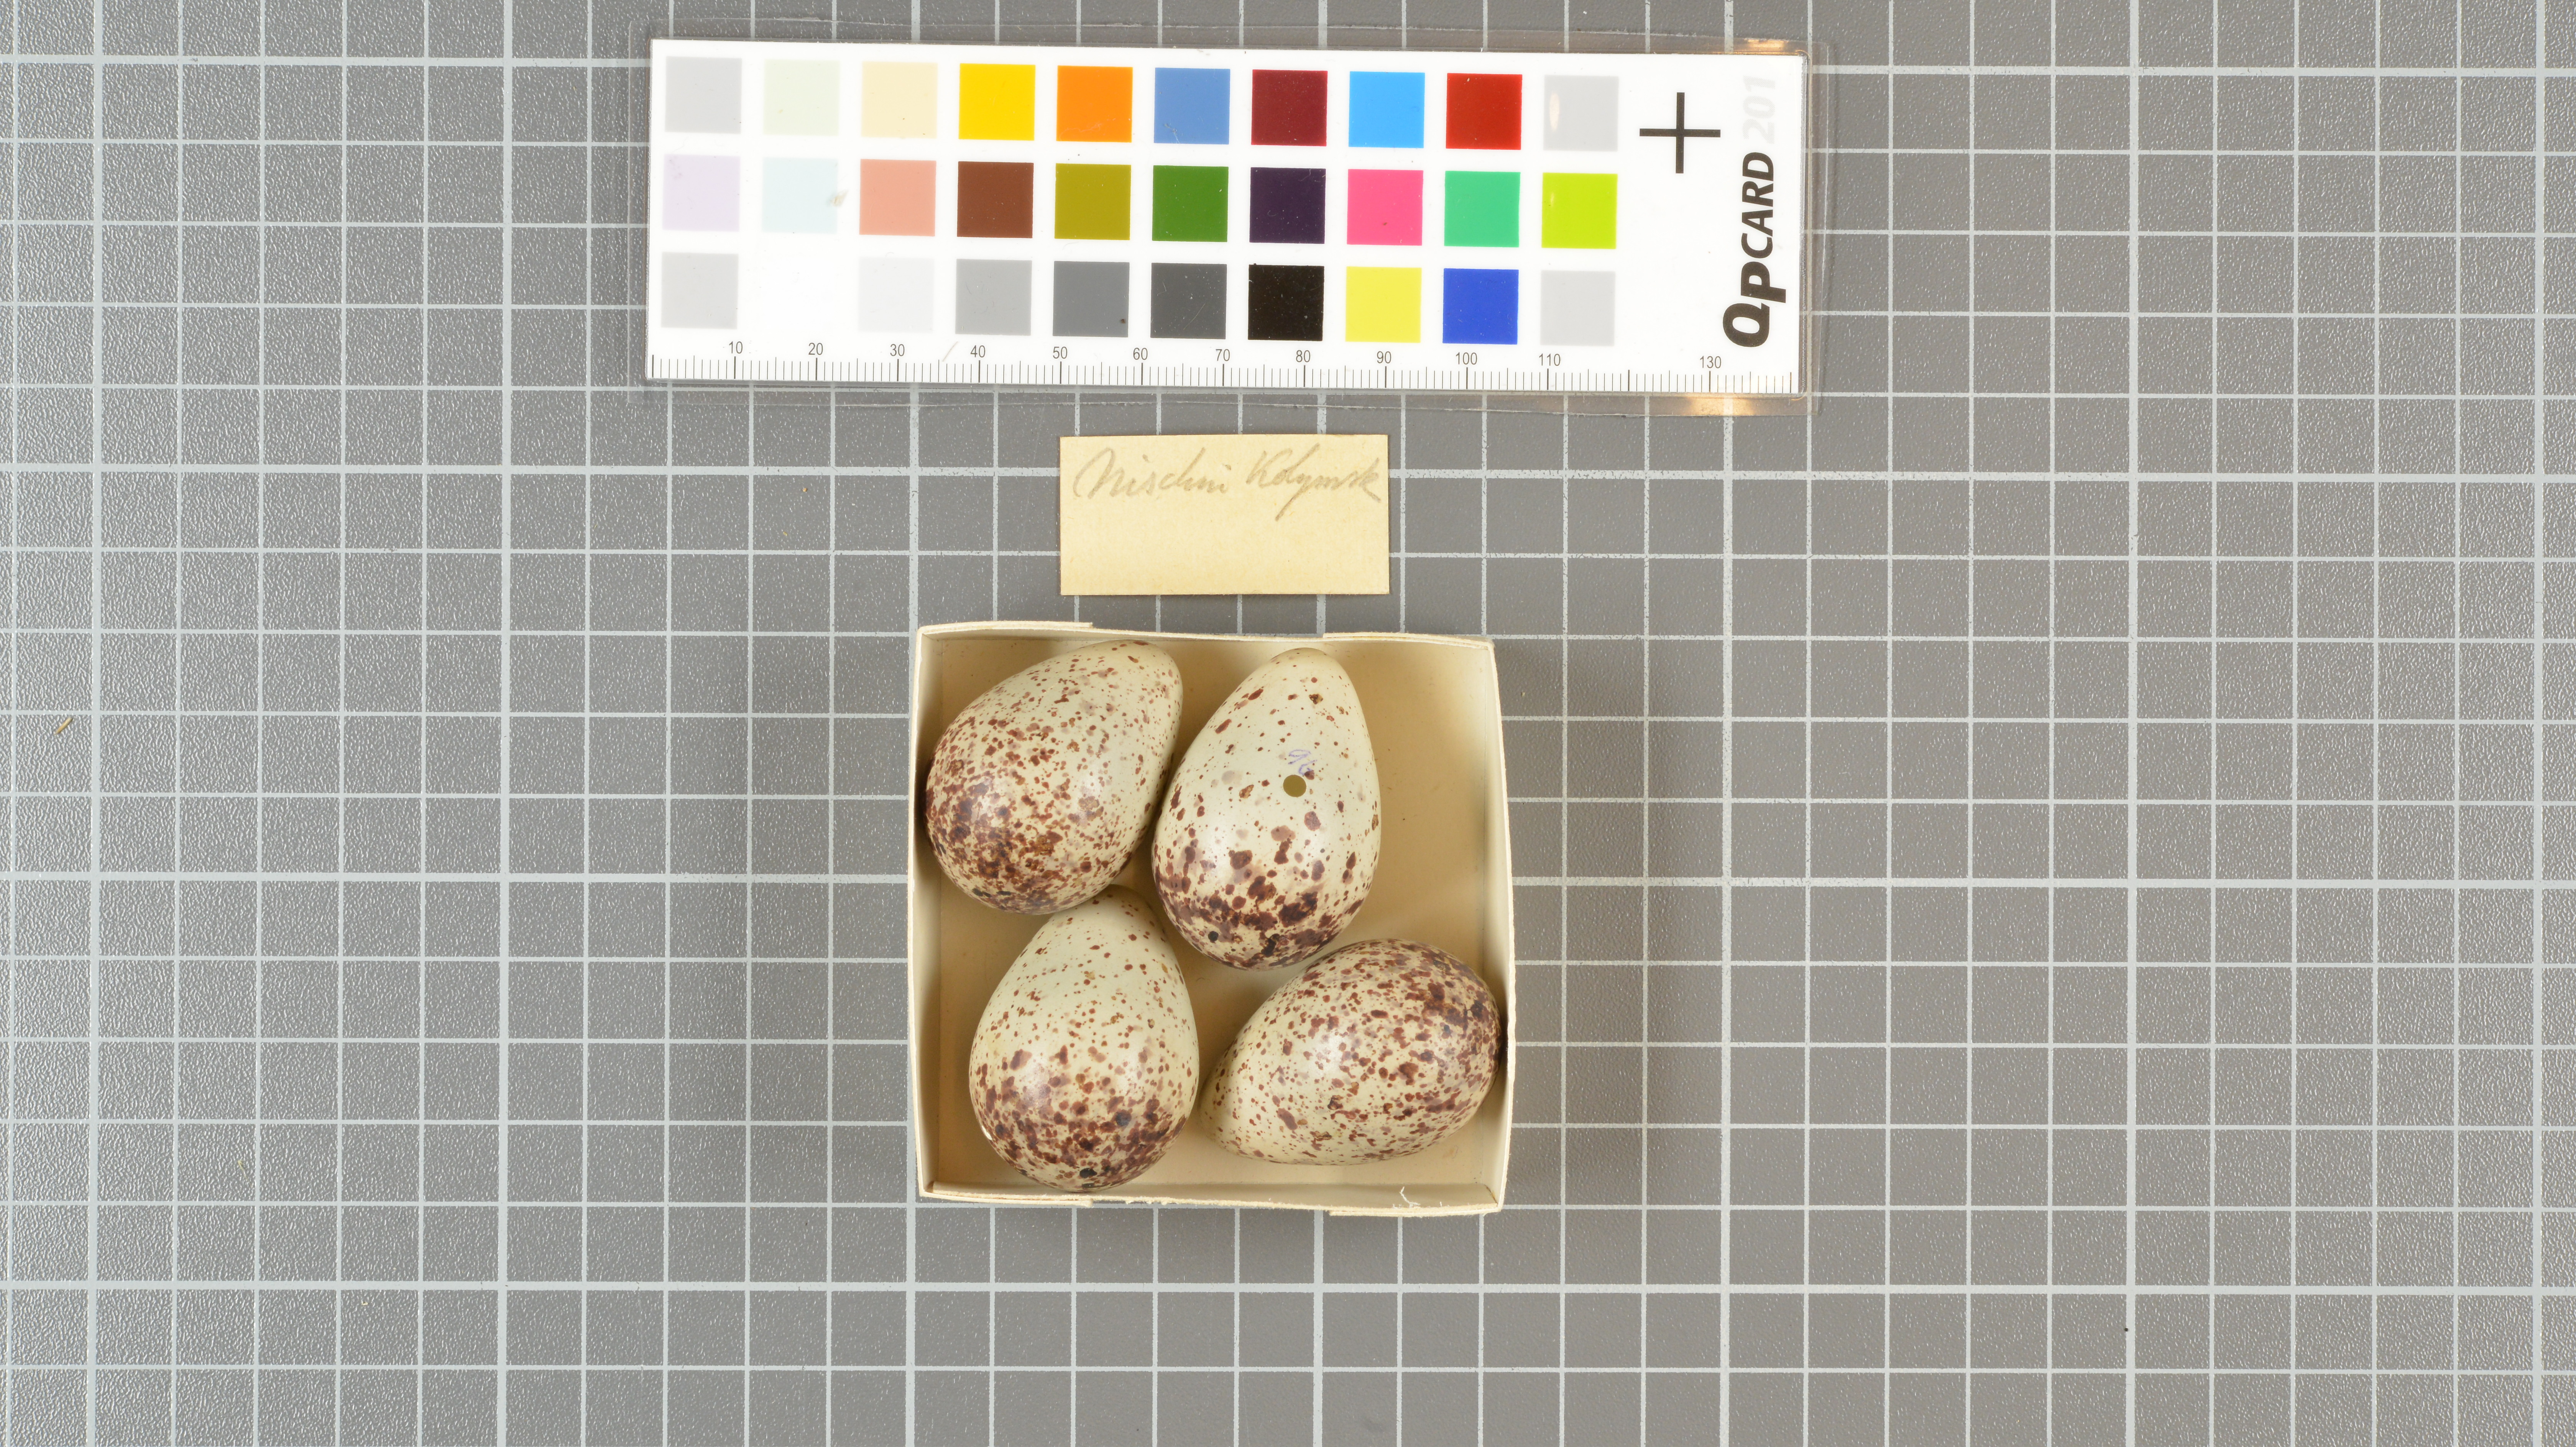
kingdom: Animalia
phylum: Chordata
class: Aves
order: Charadriiformes
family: Scolopacidae
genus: Tringa
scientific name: Tringa glareola
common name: Wood sandpiper
